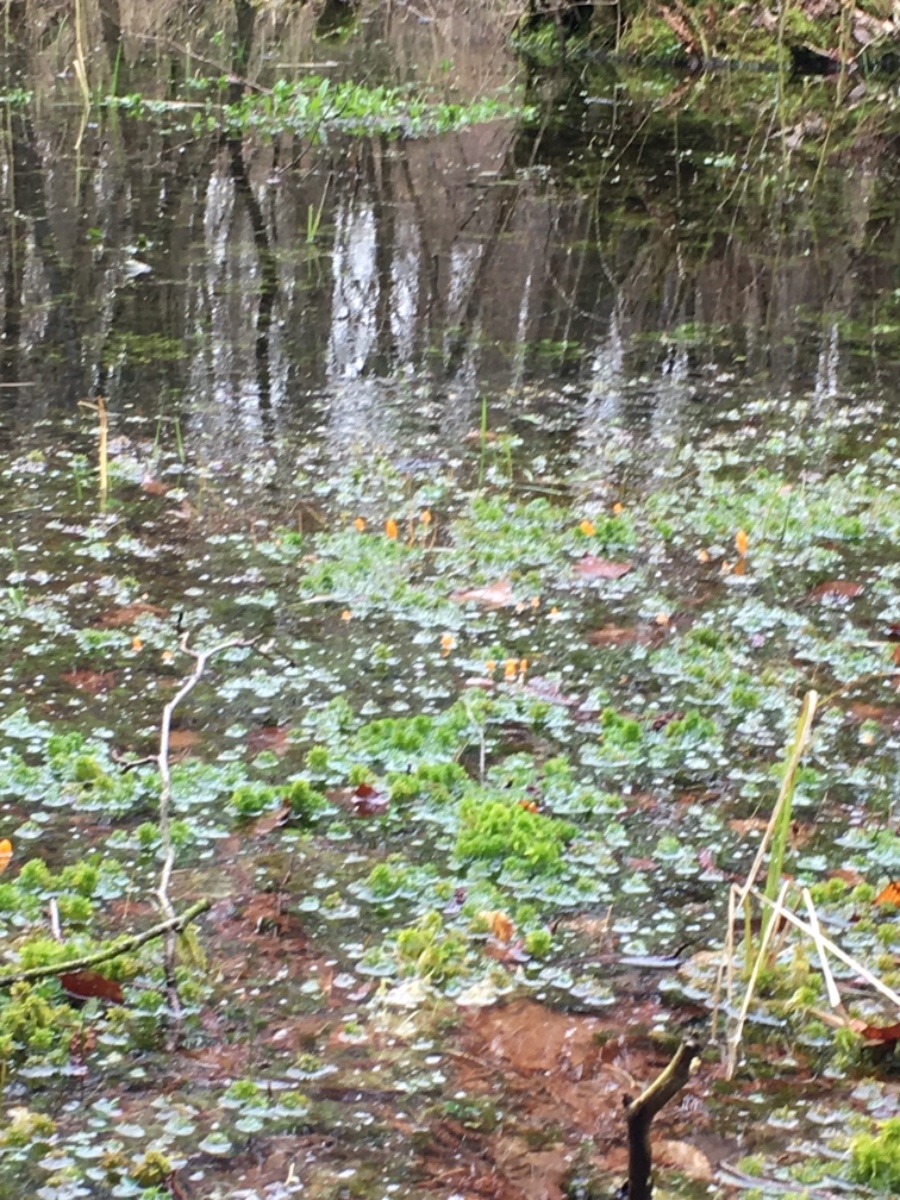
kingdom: Fungi
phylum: Ascomycota
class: Leotiomycetes
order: Helotiales
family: Cenangiaceae
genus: Mitrula
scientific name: Mitrula paludosa
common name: gul nøkketunge
